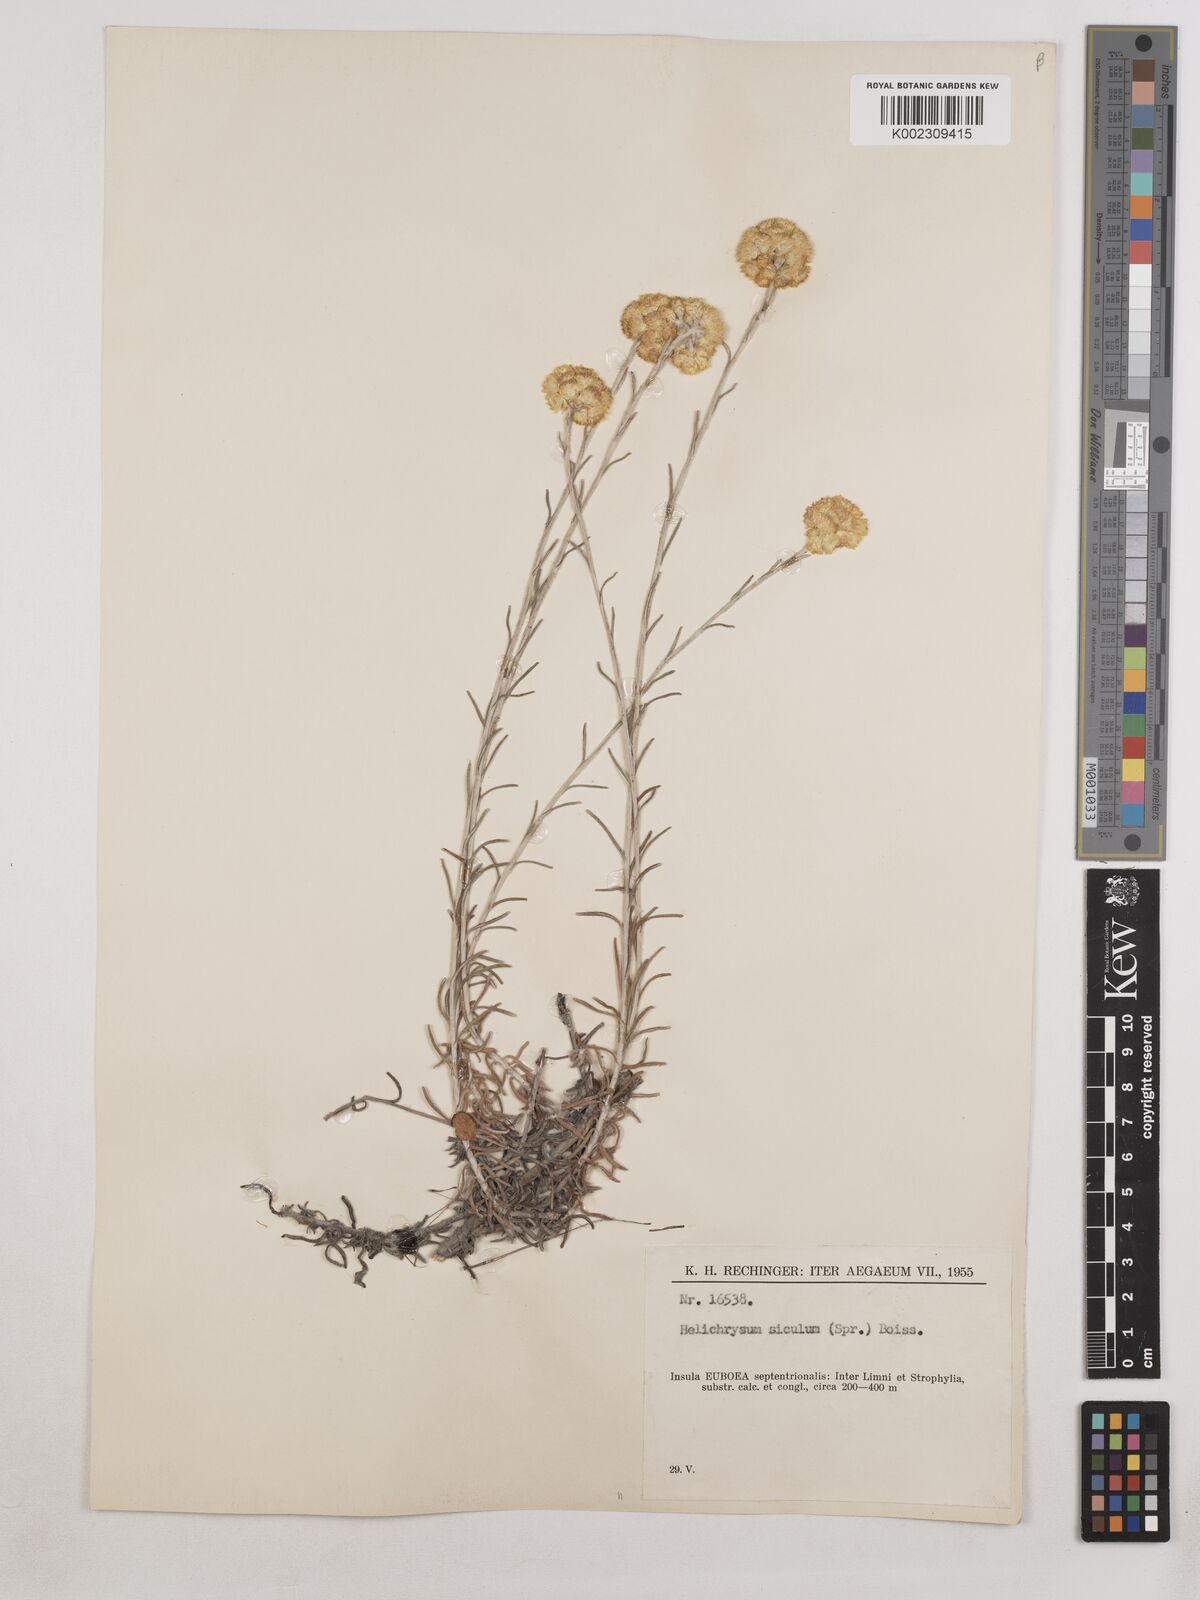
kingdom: Plantae
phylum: Tracheophyta
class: Magnoliopsida
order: Asterales
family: Asteraceae
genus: Helichrysum
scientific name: Helichrysum stoechas
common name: Goldilocks
